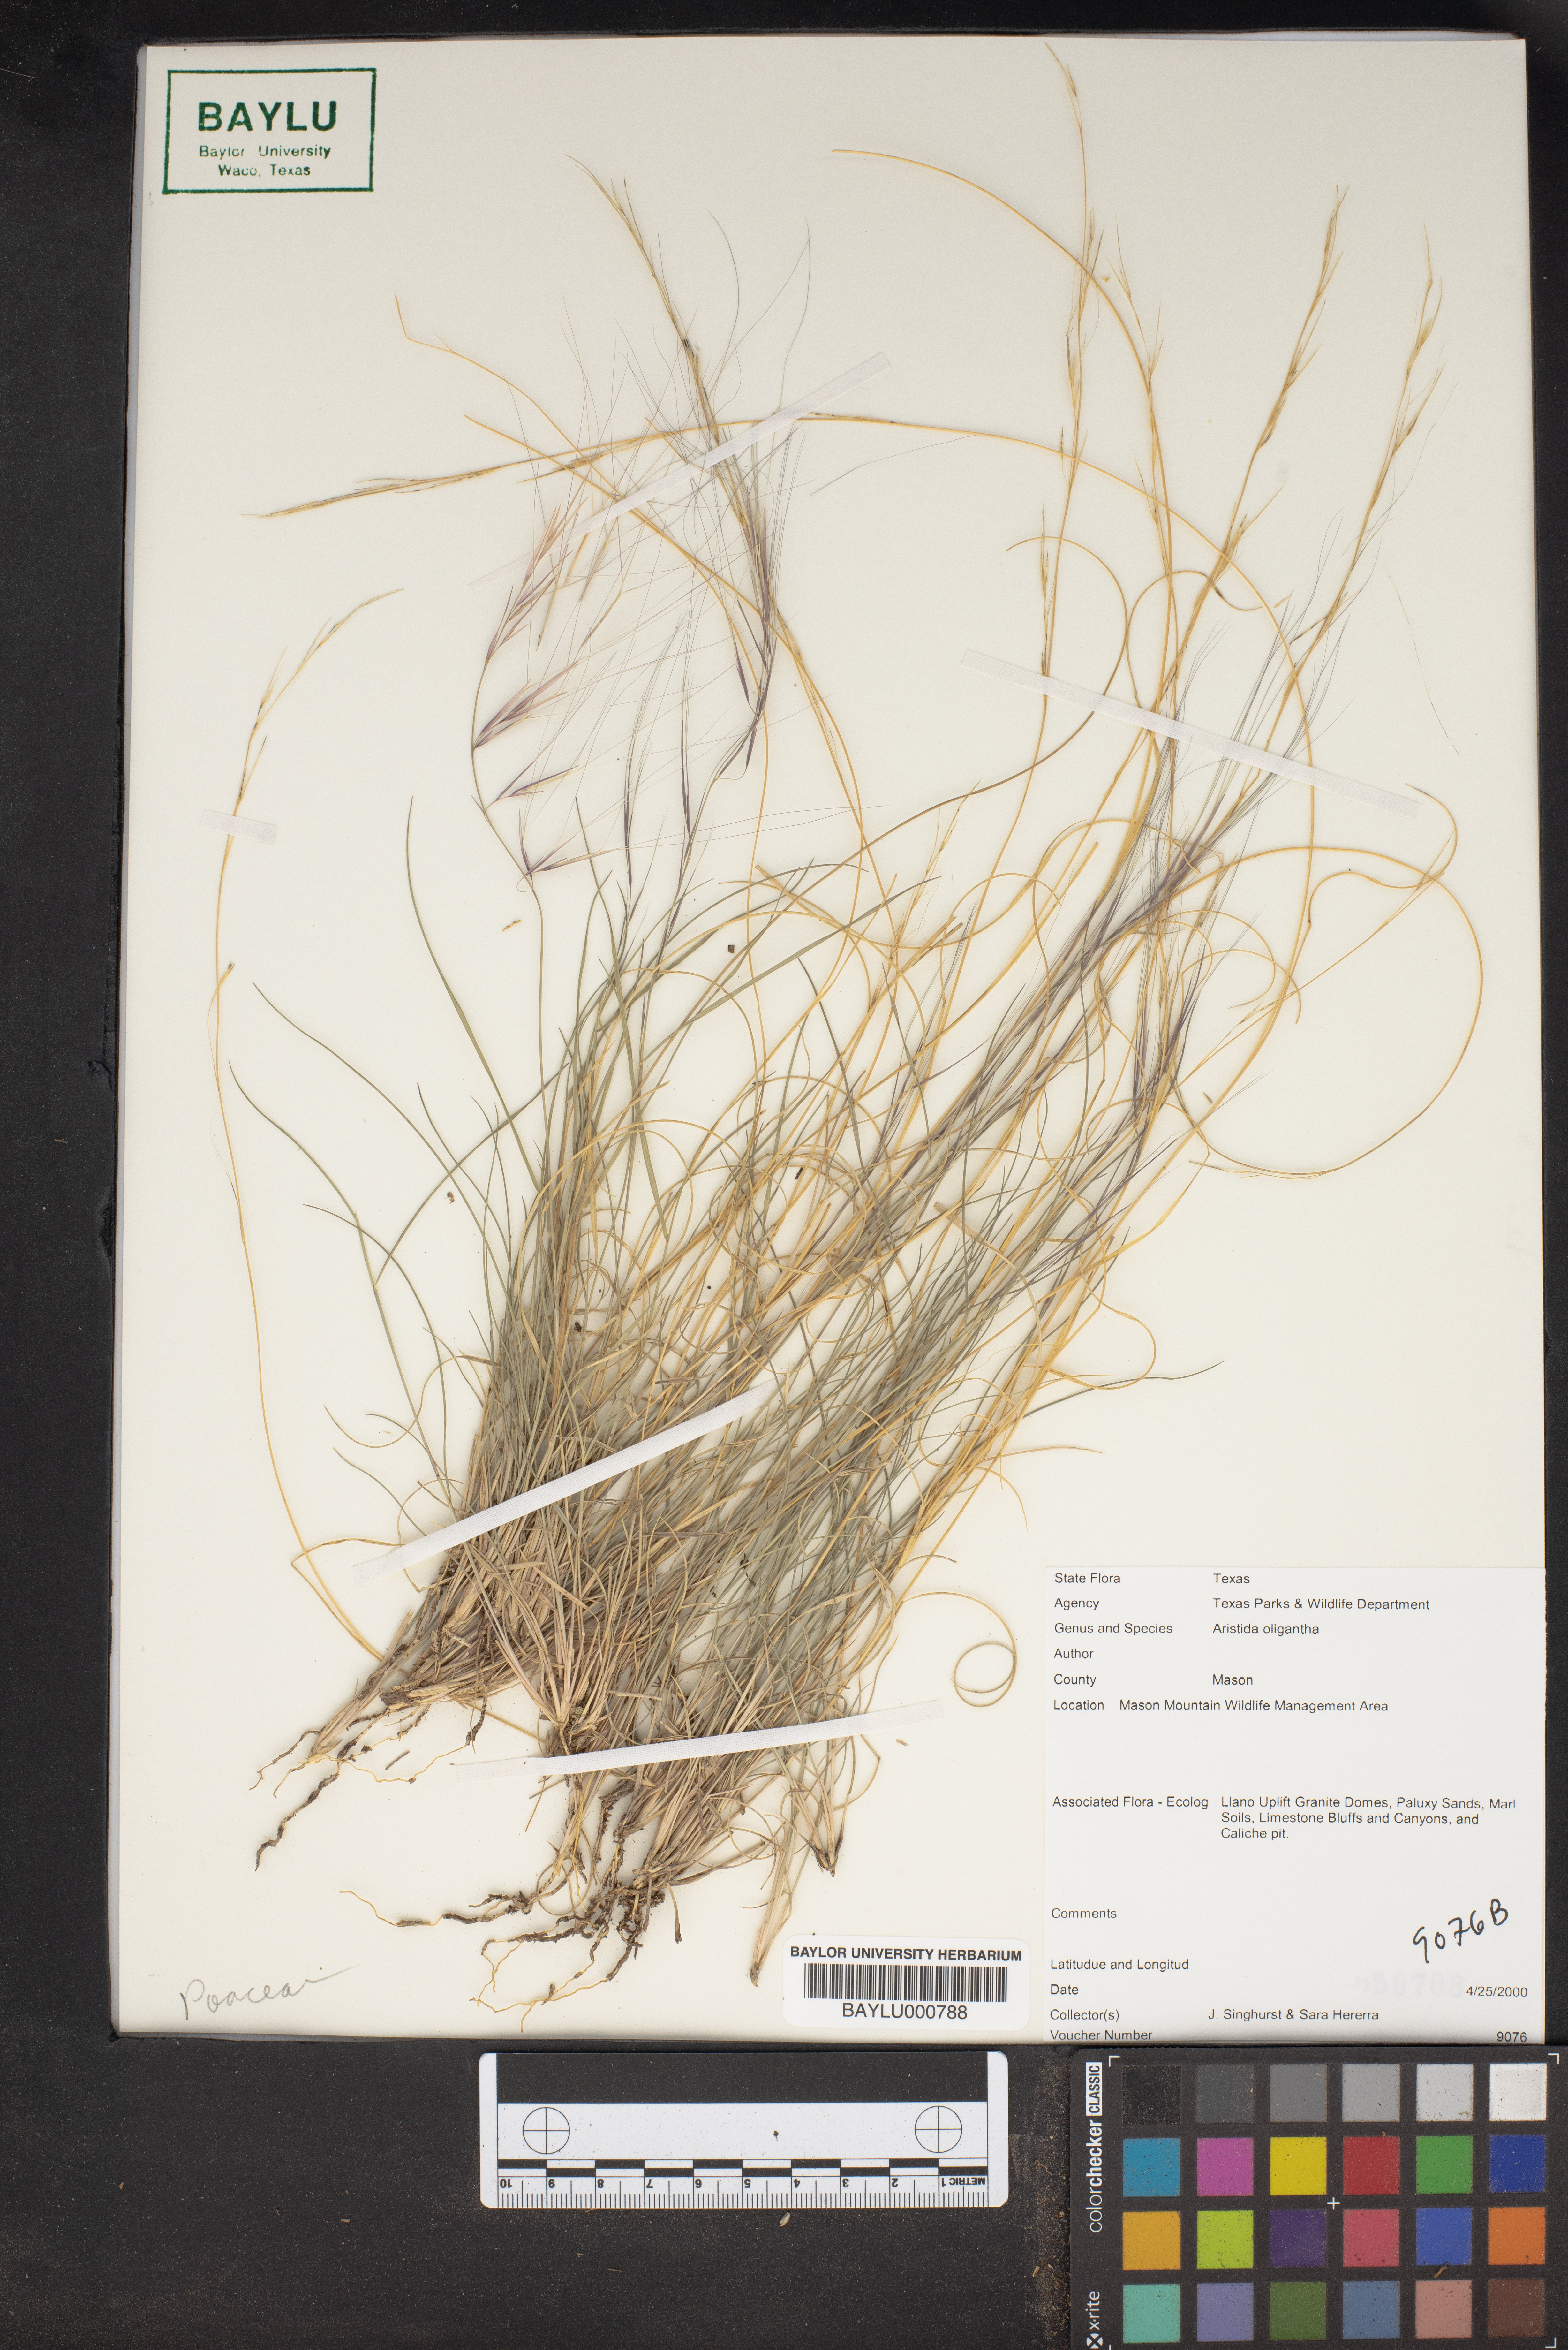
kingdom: Plantae
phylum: Tracheophyta
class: Liliopsida
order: Poales
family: Poaceae
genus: Aristida
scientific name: Aristida oligantha
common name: Few-flowered aristida
